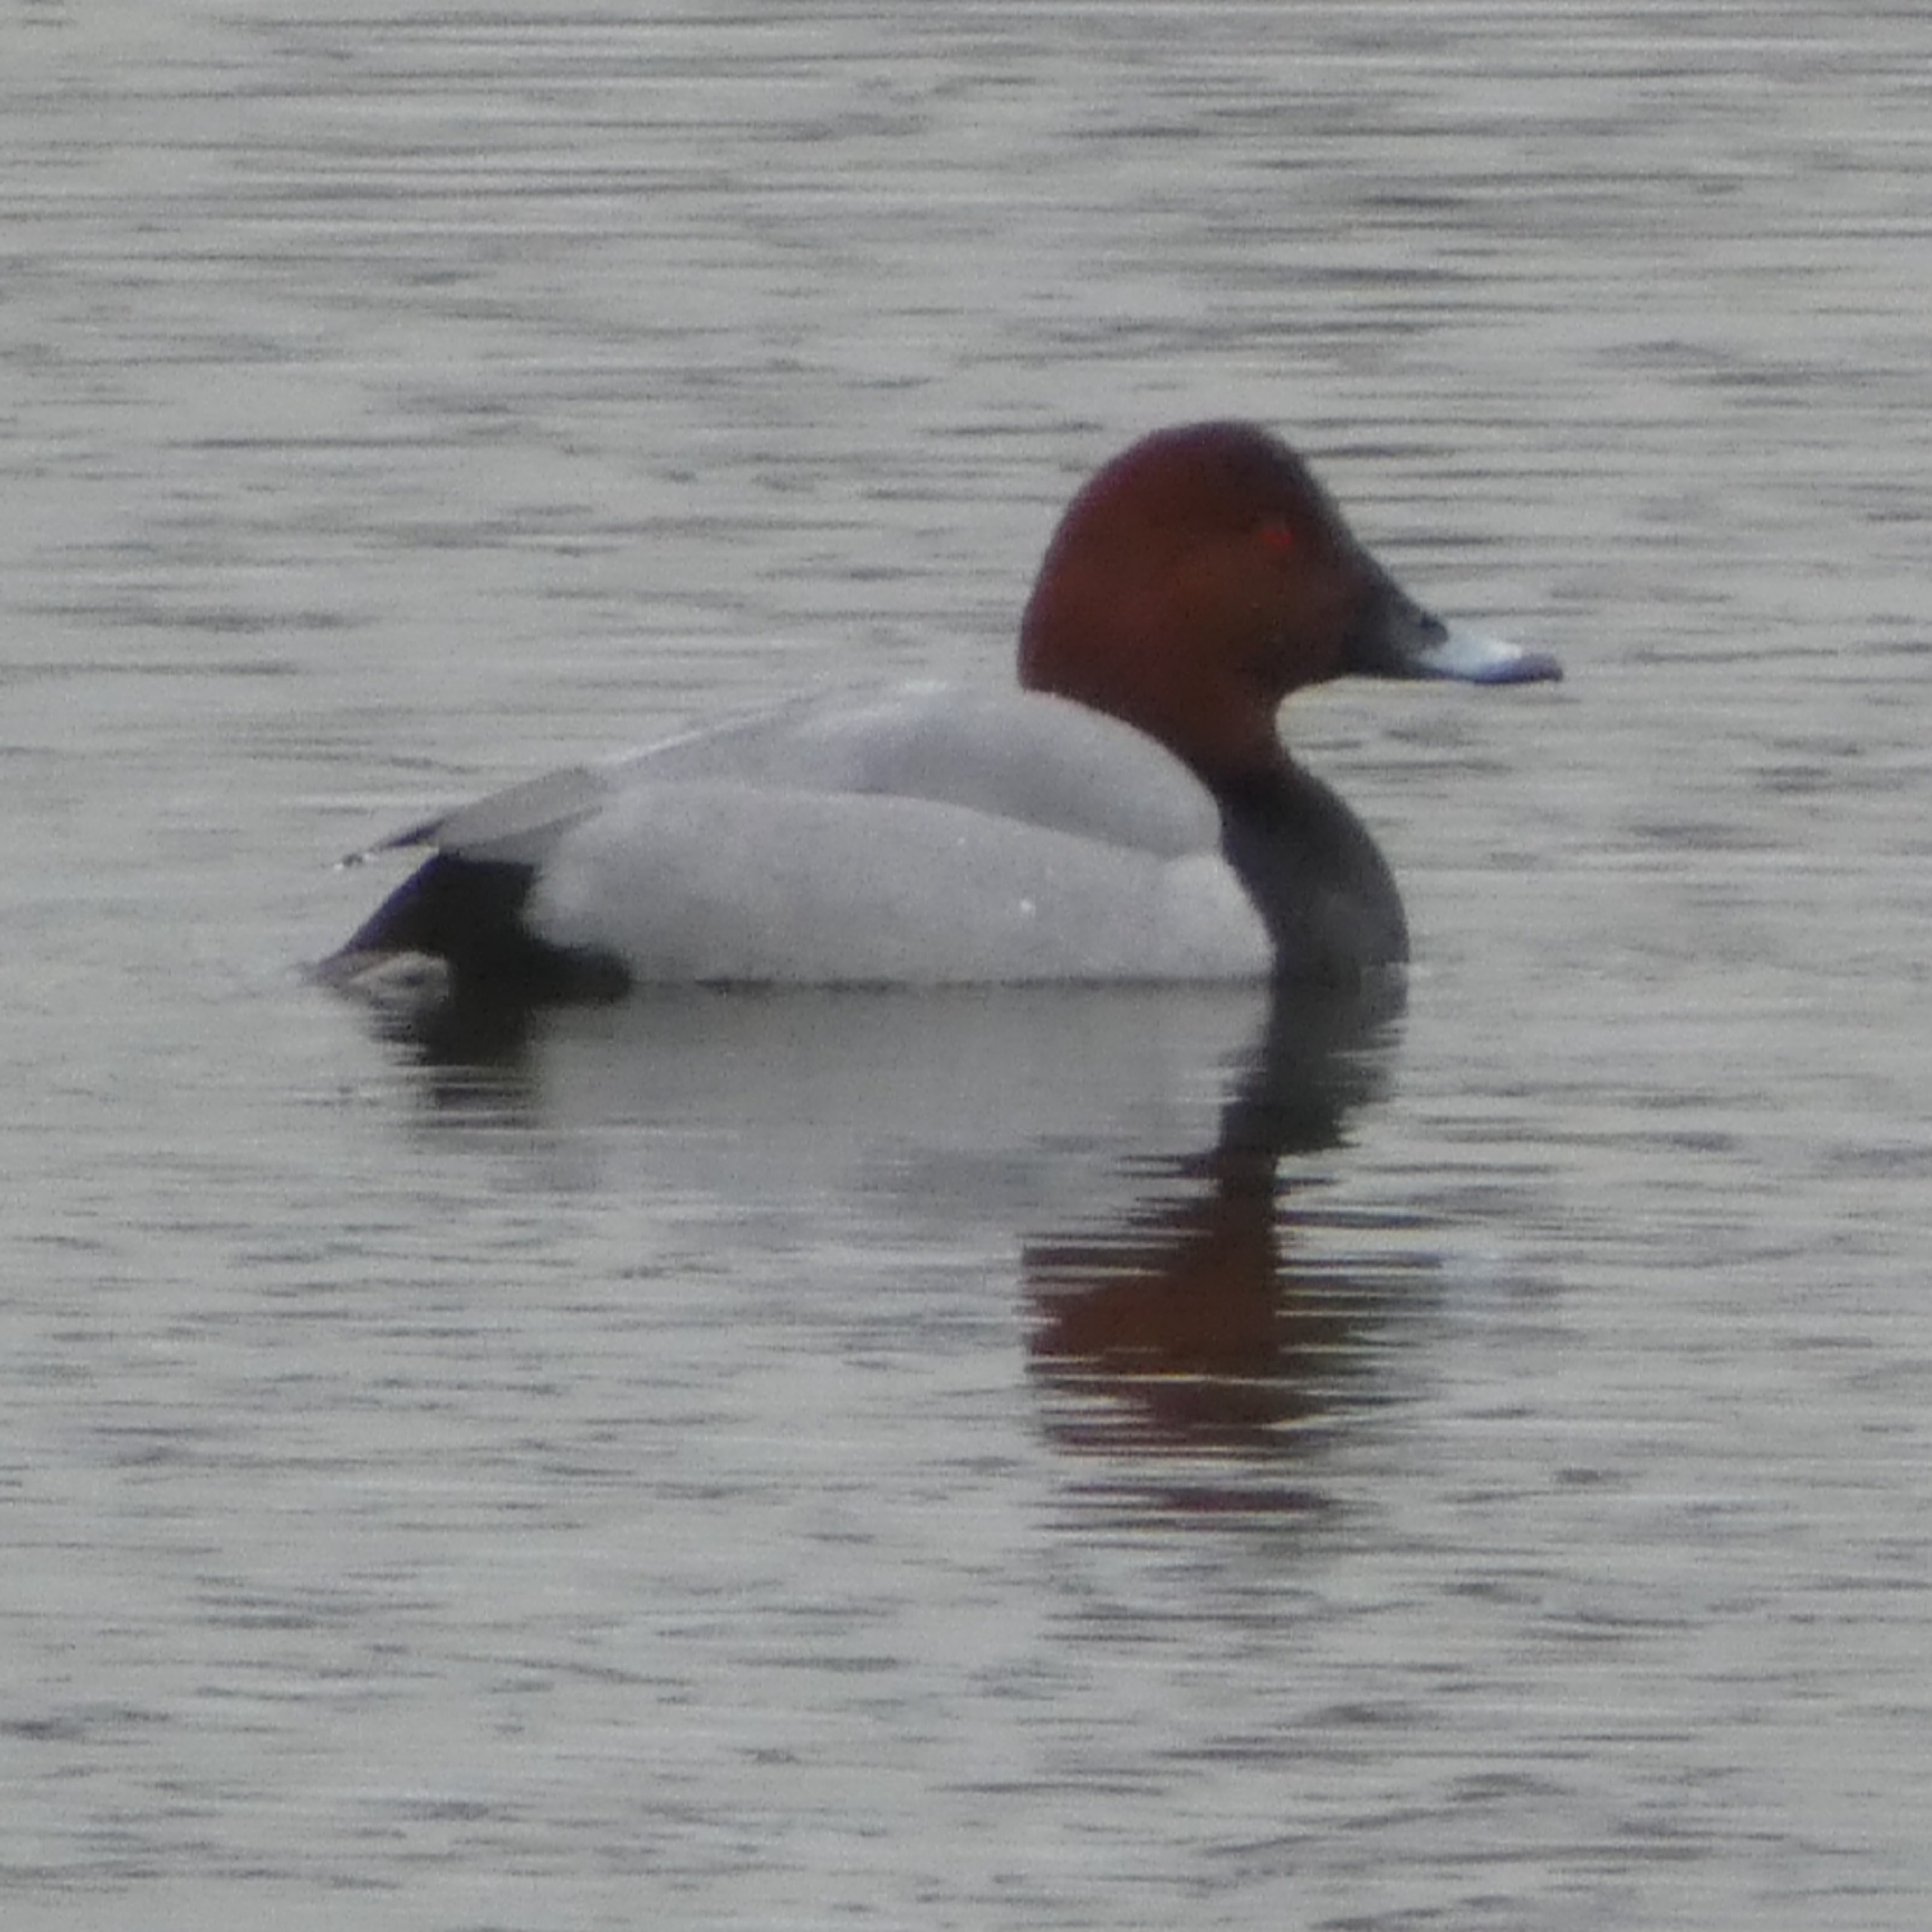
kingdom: Animalia
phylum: Chordata
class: Aves
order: Anseriformes
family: Anatidae
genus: Aythya
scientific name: Aythya ferina
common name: Taffeland
